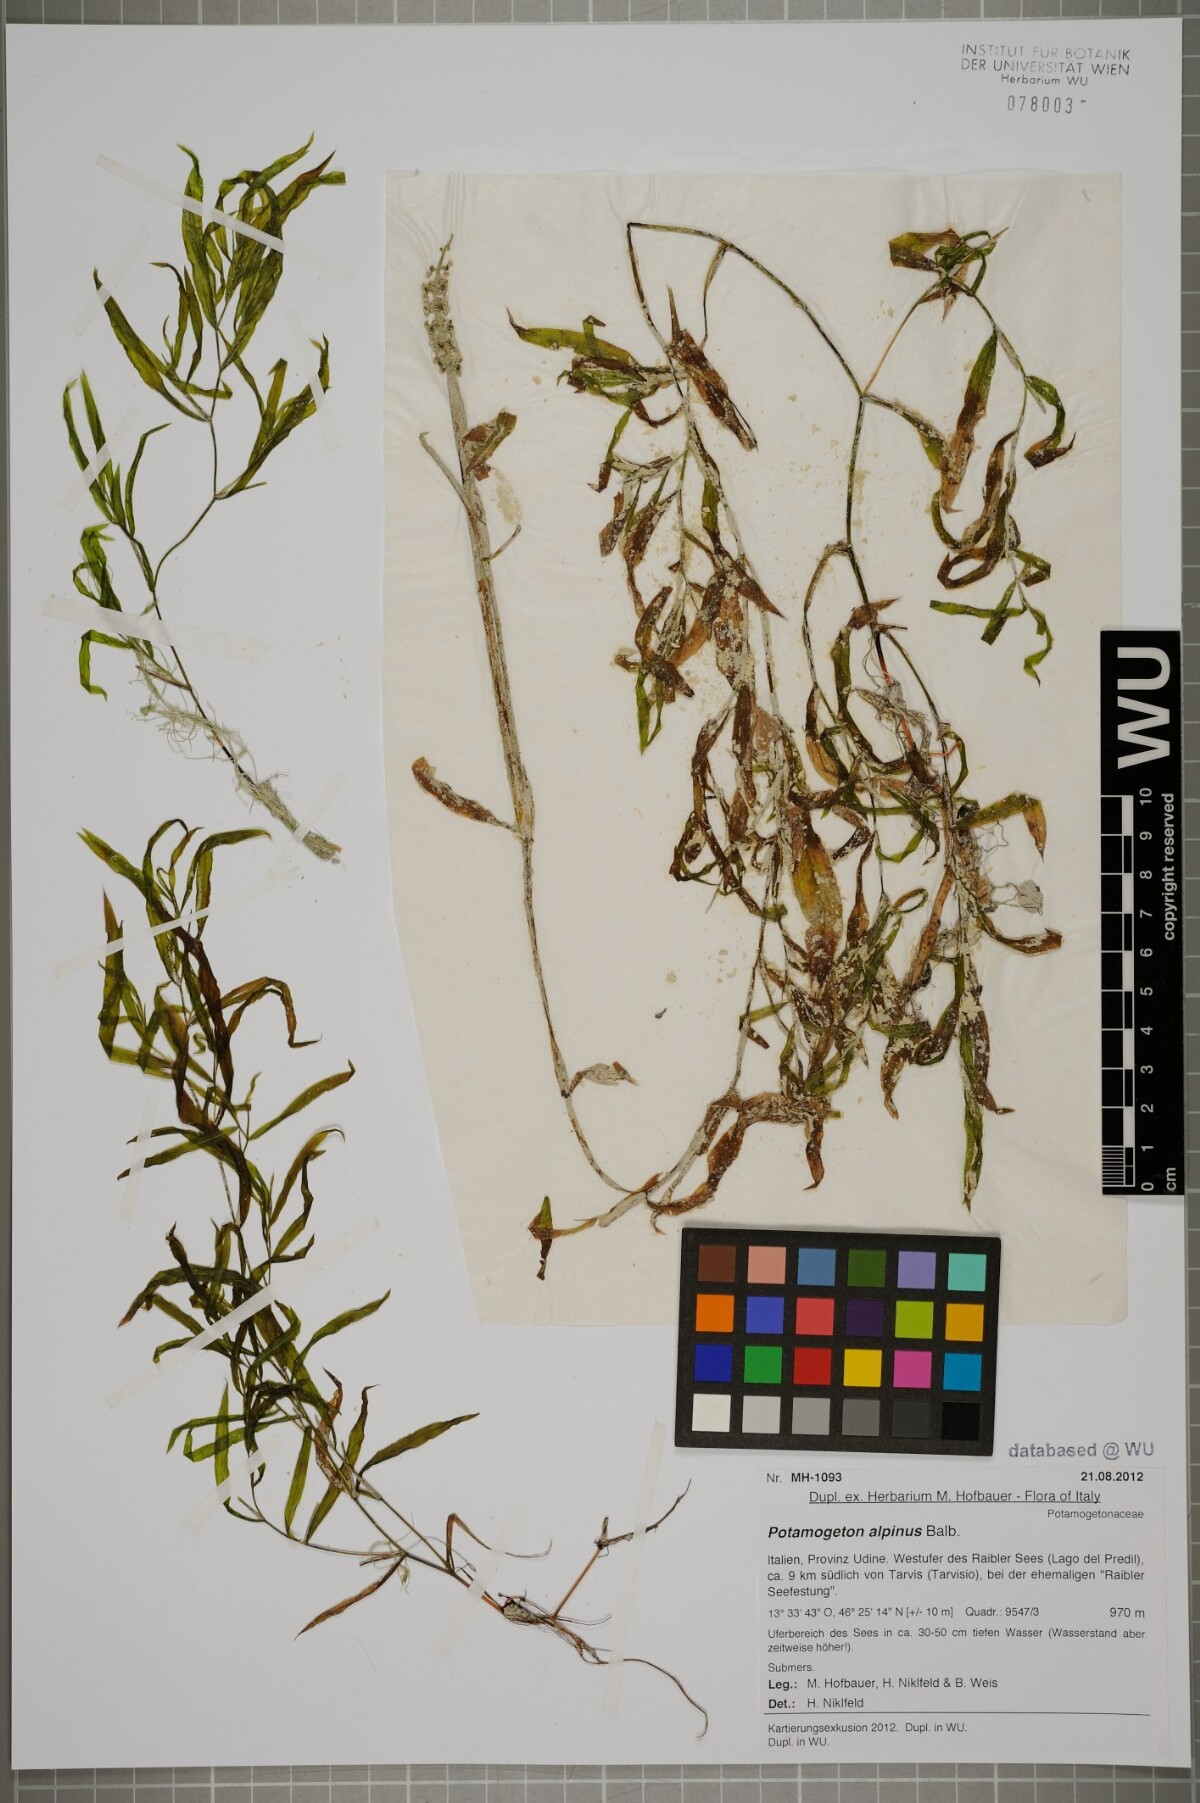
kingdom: Plantae
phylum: Tracheophyta
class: Liliopsida
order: Alismatales
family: Potamogetonaceae
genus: Potamogeton
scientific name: Potamogeton alpinus
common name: Red pondweed
